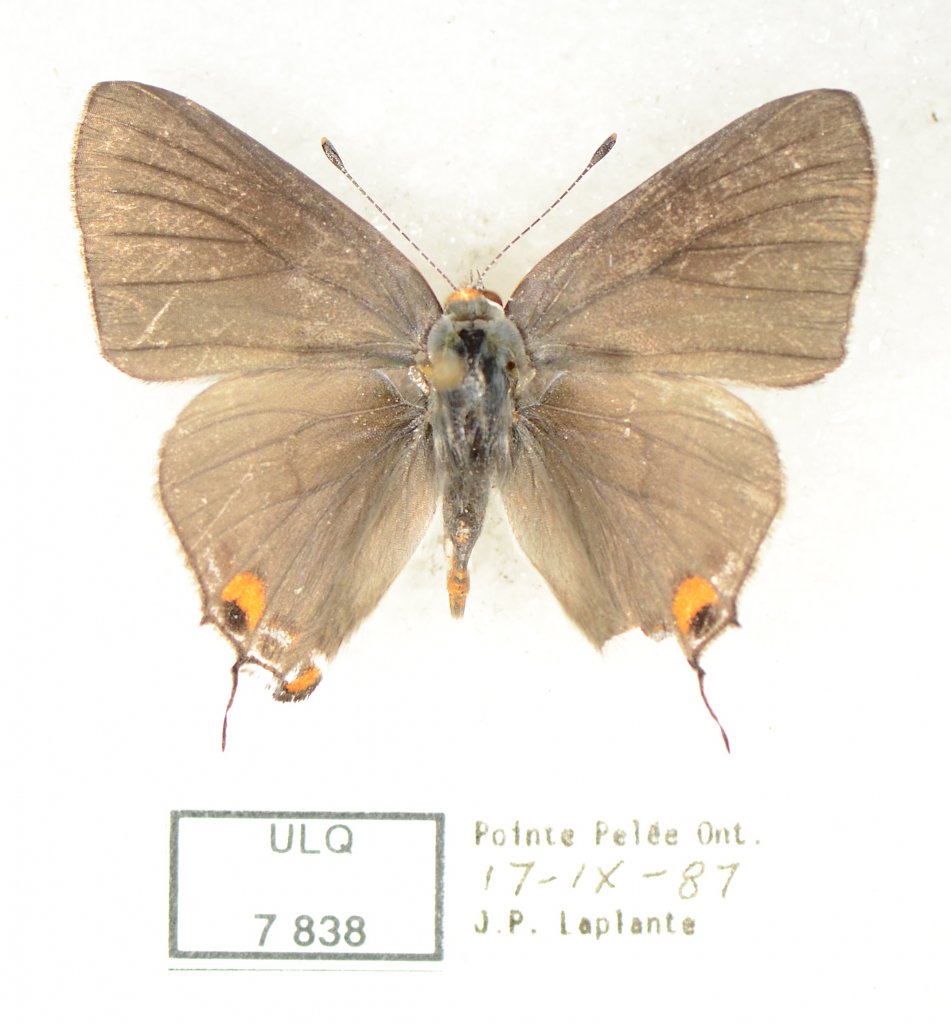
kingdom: Animalia
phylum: Arthropoda
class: Insecta
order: Lepidoptera
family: Lycaenidae
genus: Strymon
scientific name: Strymon melinus
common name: Gray Hairstreak
